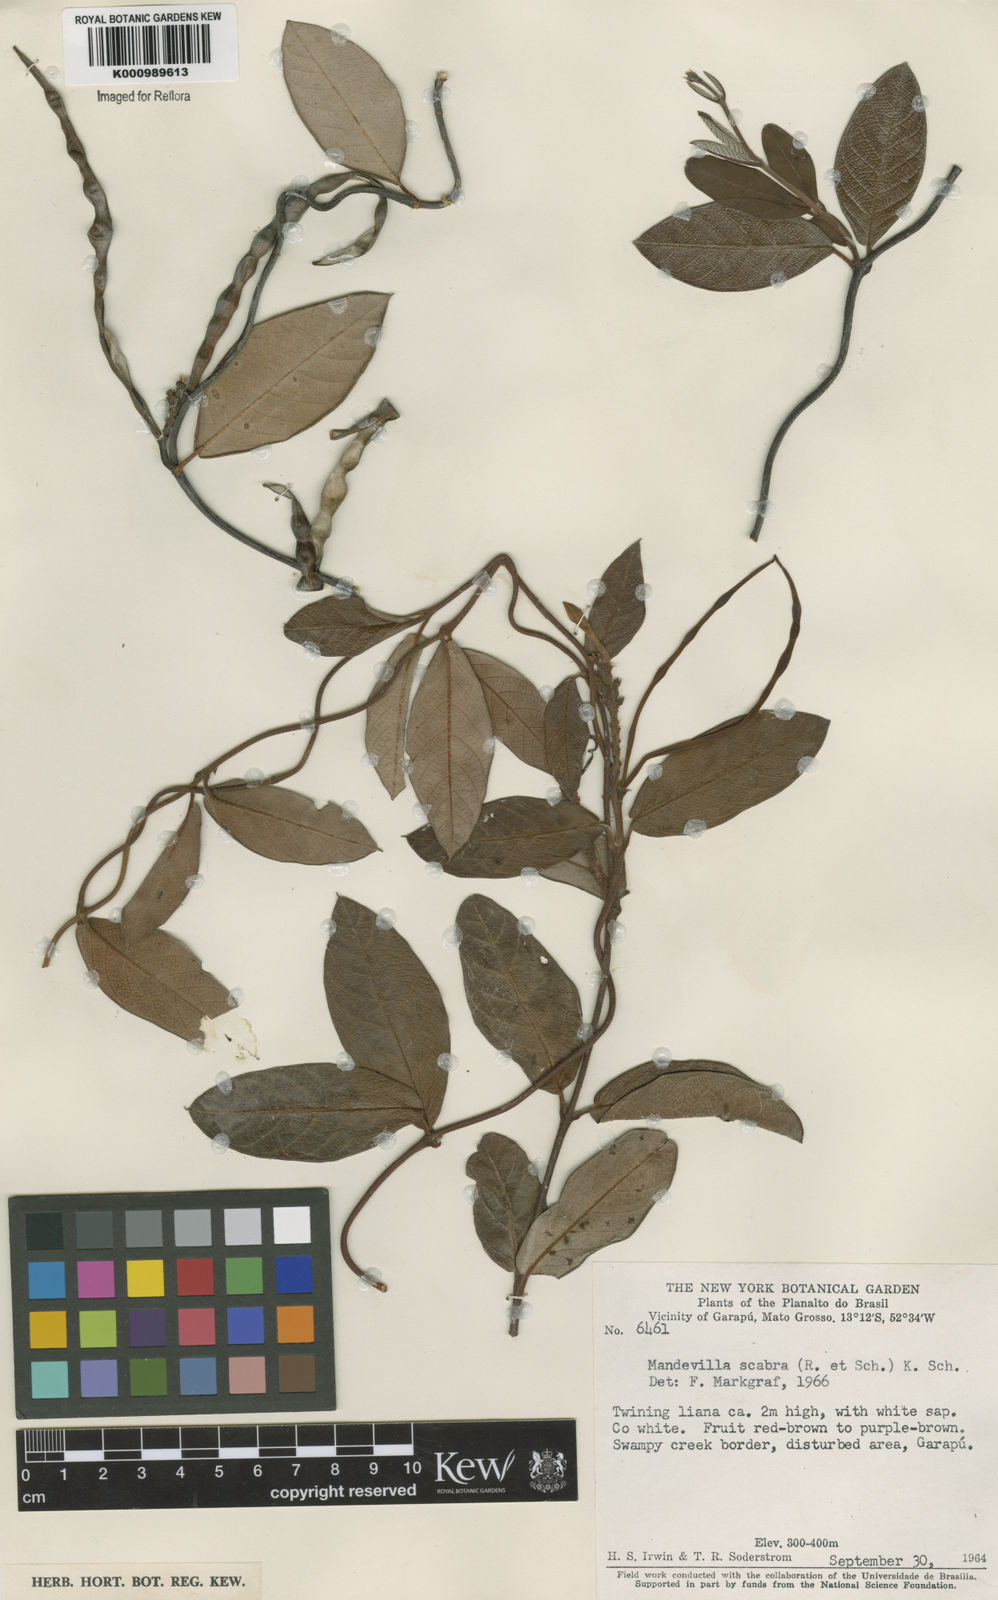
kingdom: Plantae
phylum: Tracheophyta
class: Magnoliopsida
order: Gentianales
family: Apocynaceae
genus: Mandevilla
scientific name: Mandevilla scabra
